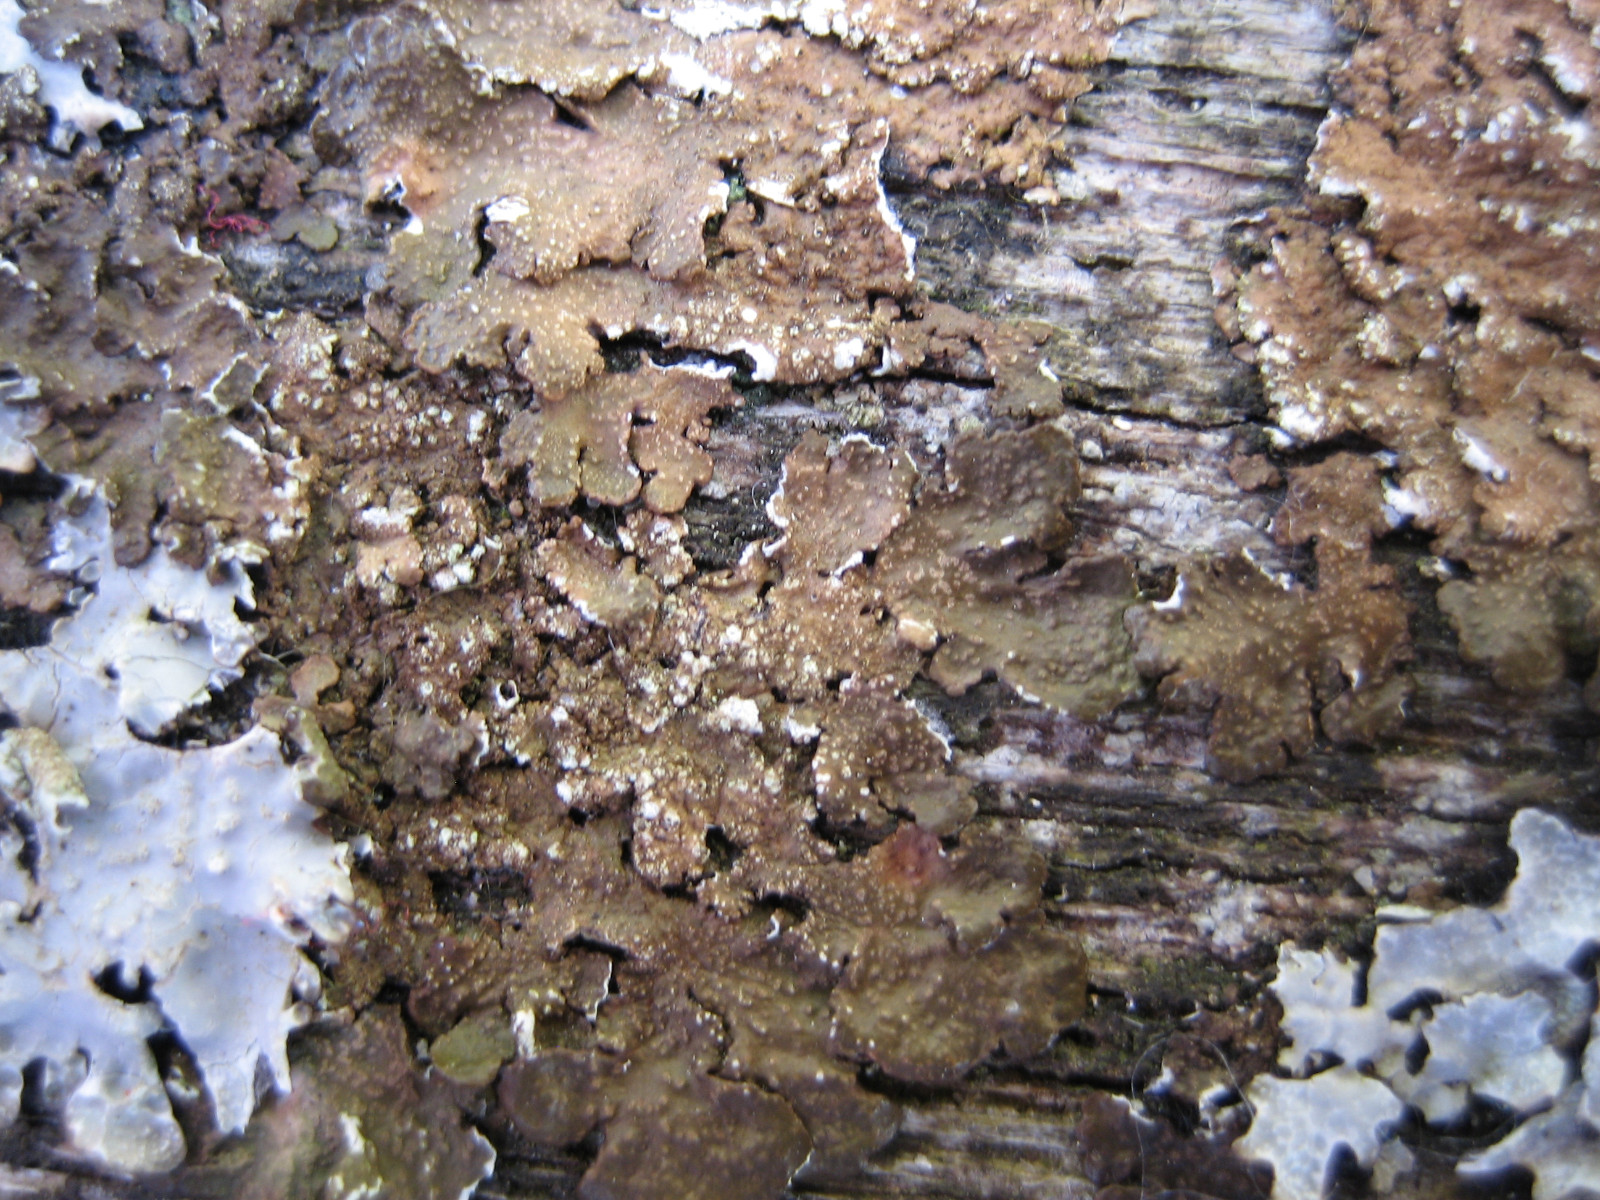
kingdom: Fungi
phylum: Ascomycota
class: Lecanoromycetes
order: Lecanorales
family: Parmeliaceae
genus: Melanelixia
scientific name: Melanelixia subaurifera
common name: guldpudret skållav
